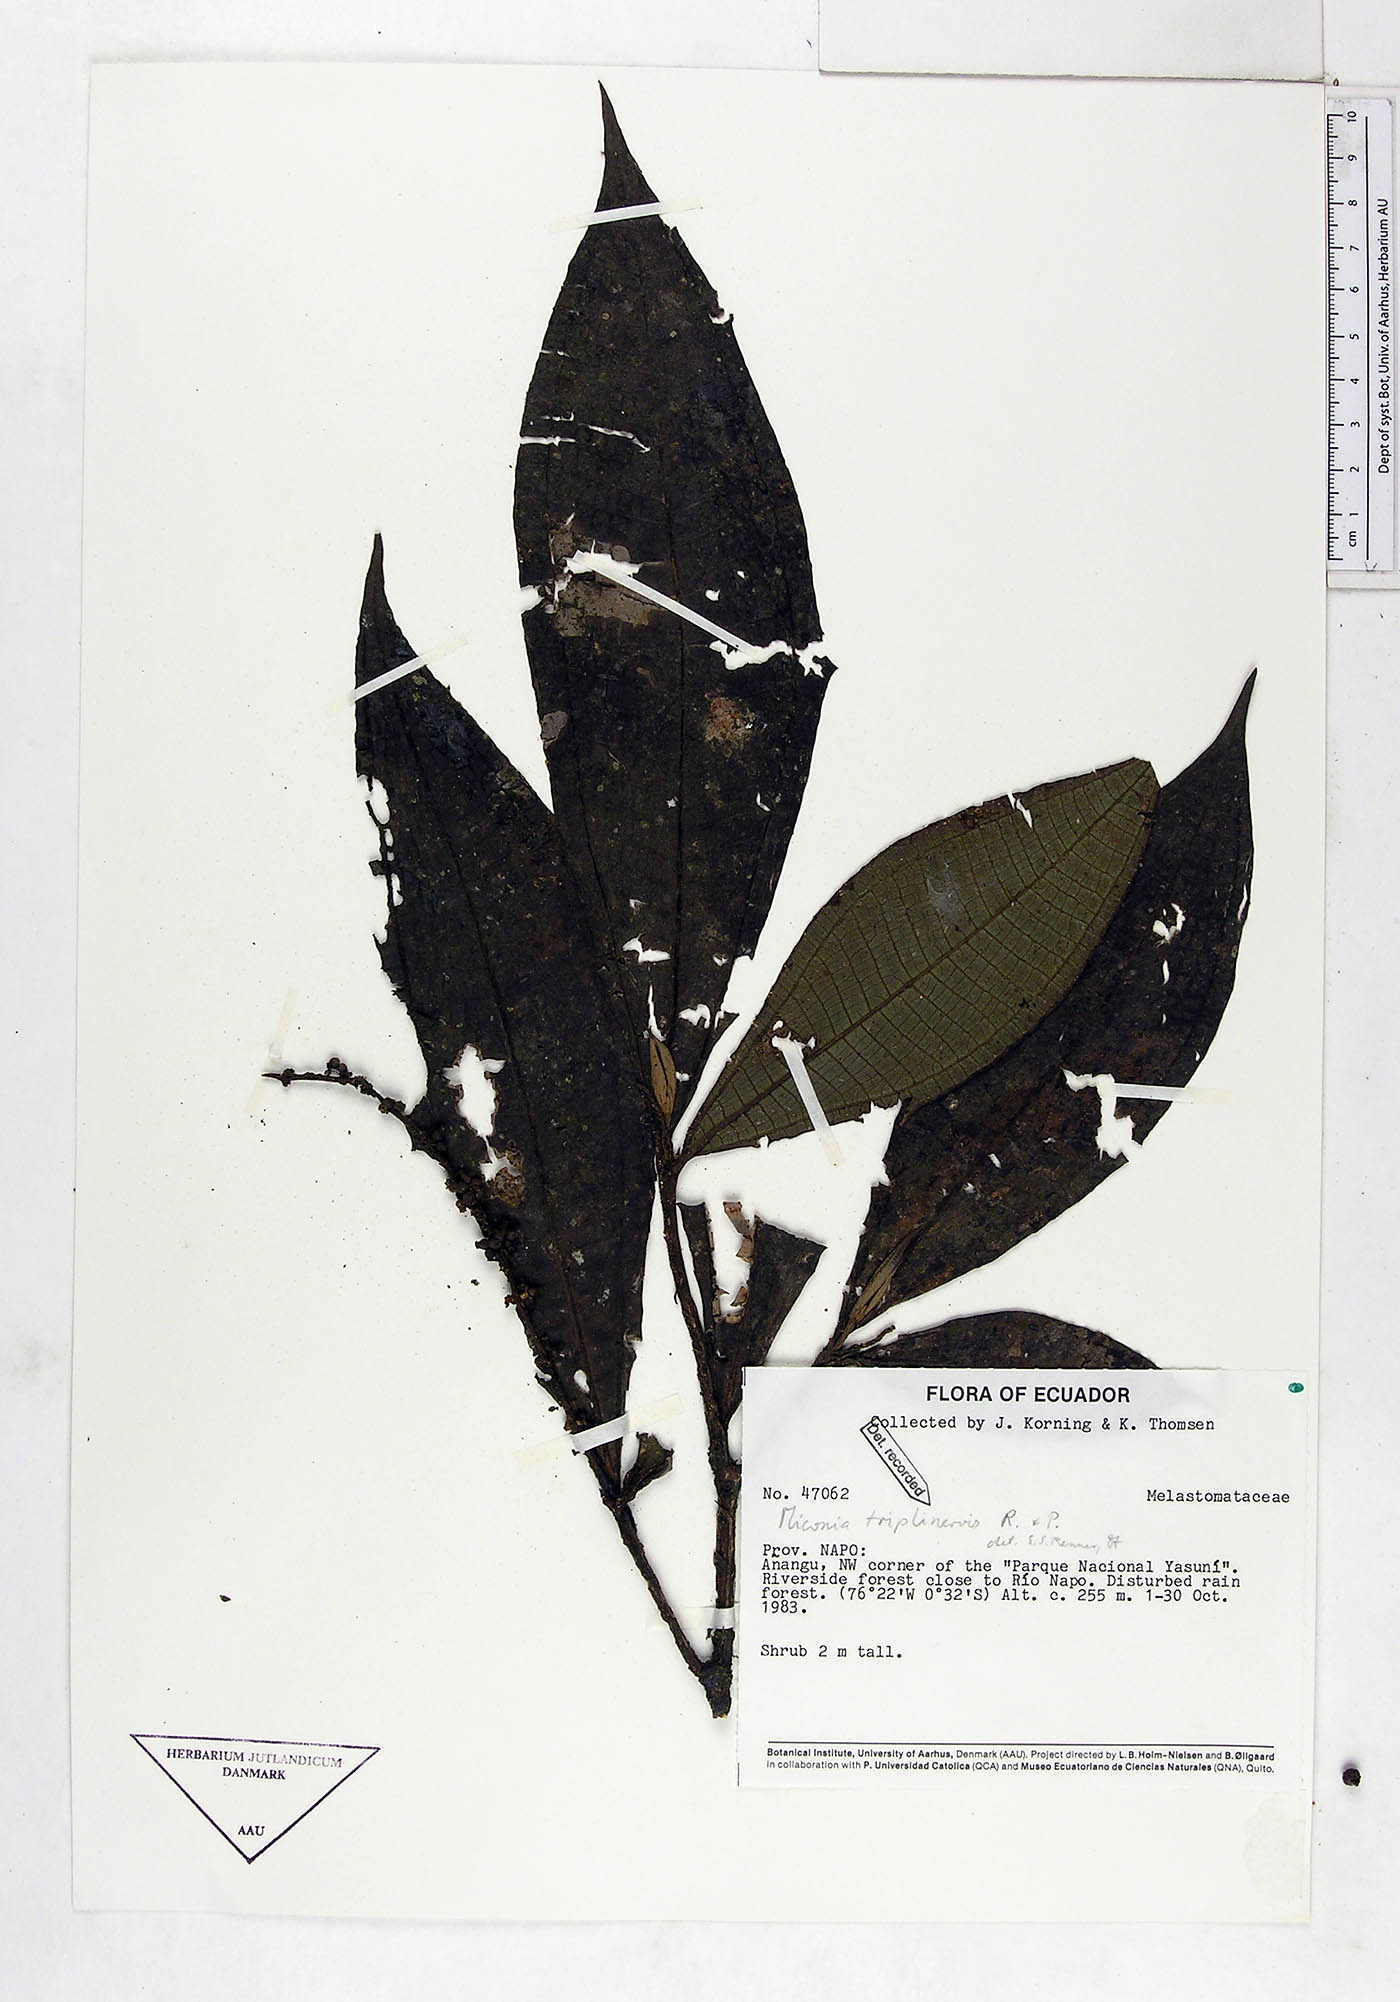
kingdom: Plantae
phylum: Tracheophyta
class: Magnoliopsida
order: Myrtales
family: Melastomataceae
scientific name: Melastomataceae
